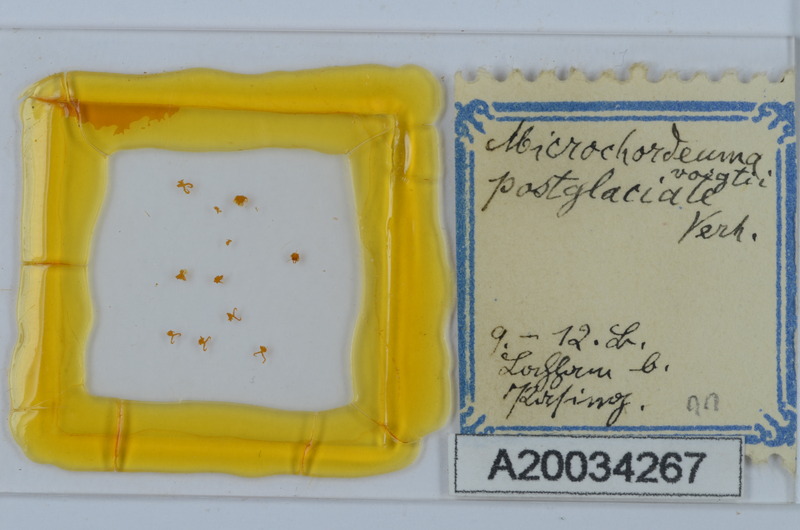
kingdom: Animalia
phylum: Arthropoda
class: Diplopoda
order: Chordeumatida
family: Chordeumatidae
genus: Melogona
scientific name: Melogona voigtii
